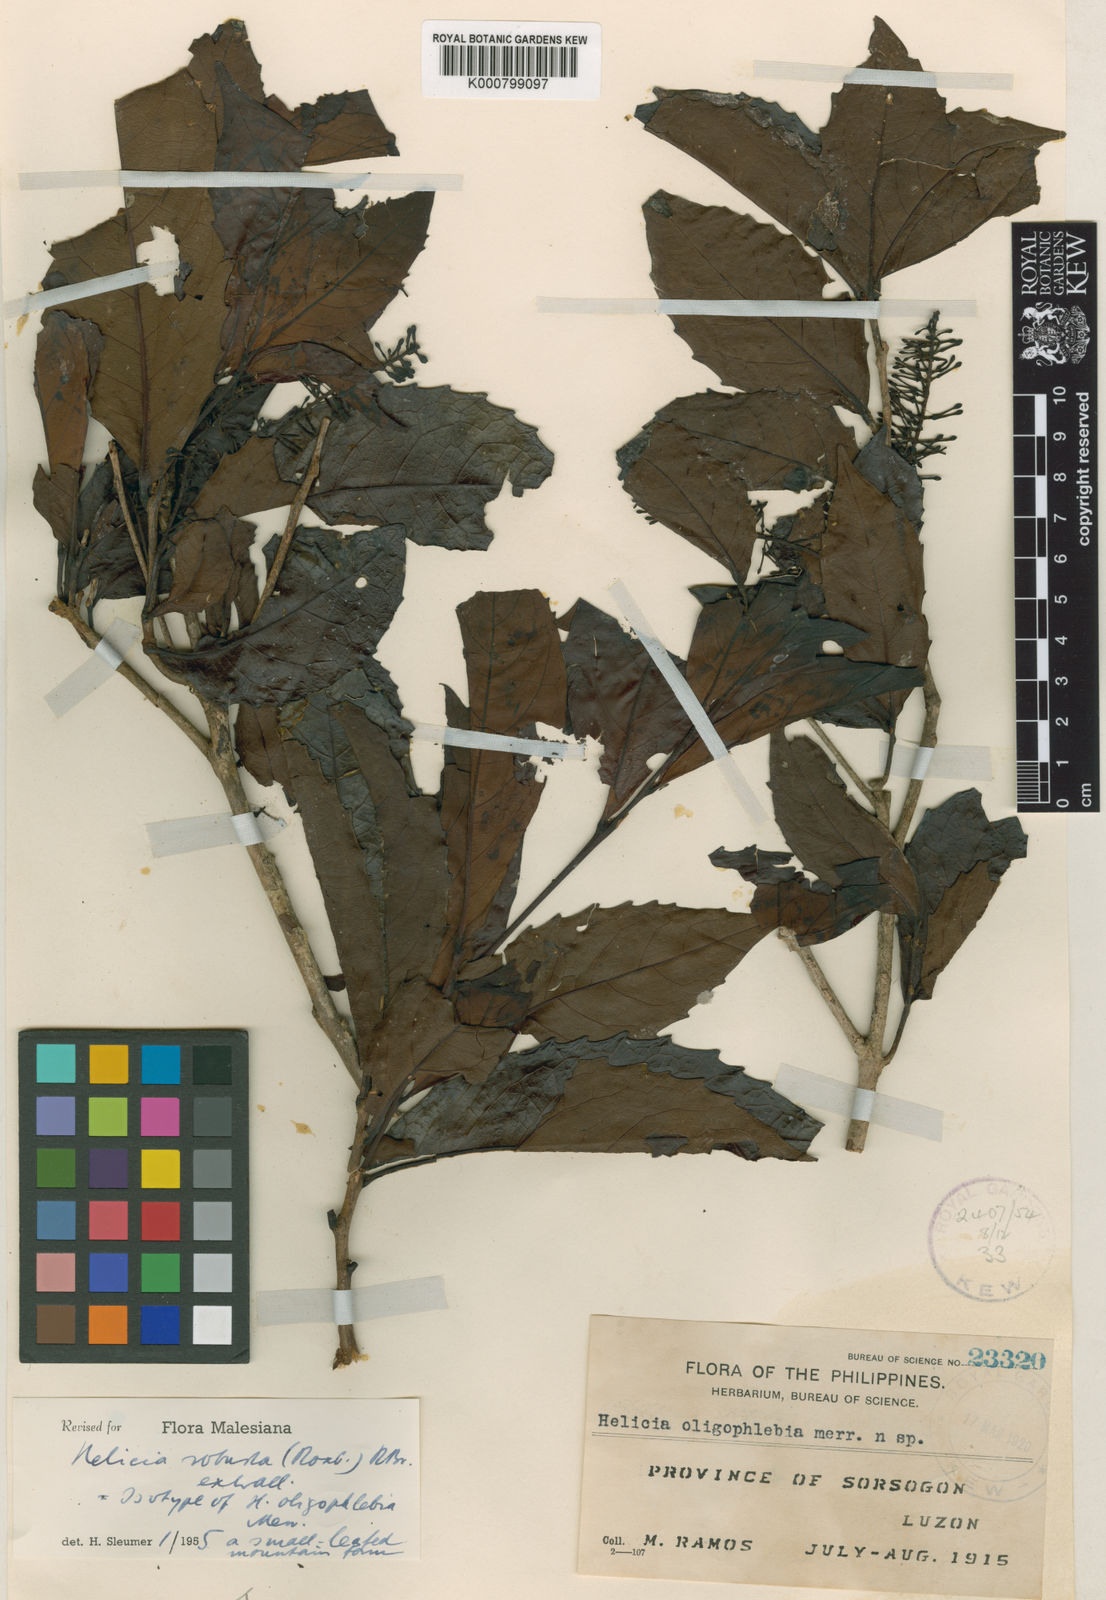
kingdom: Plantae
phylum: Tracheophyta
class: Magnoliopsida
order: Proteales
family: Proteaceae
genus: Helicia
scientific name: Helicia
